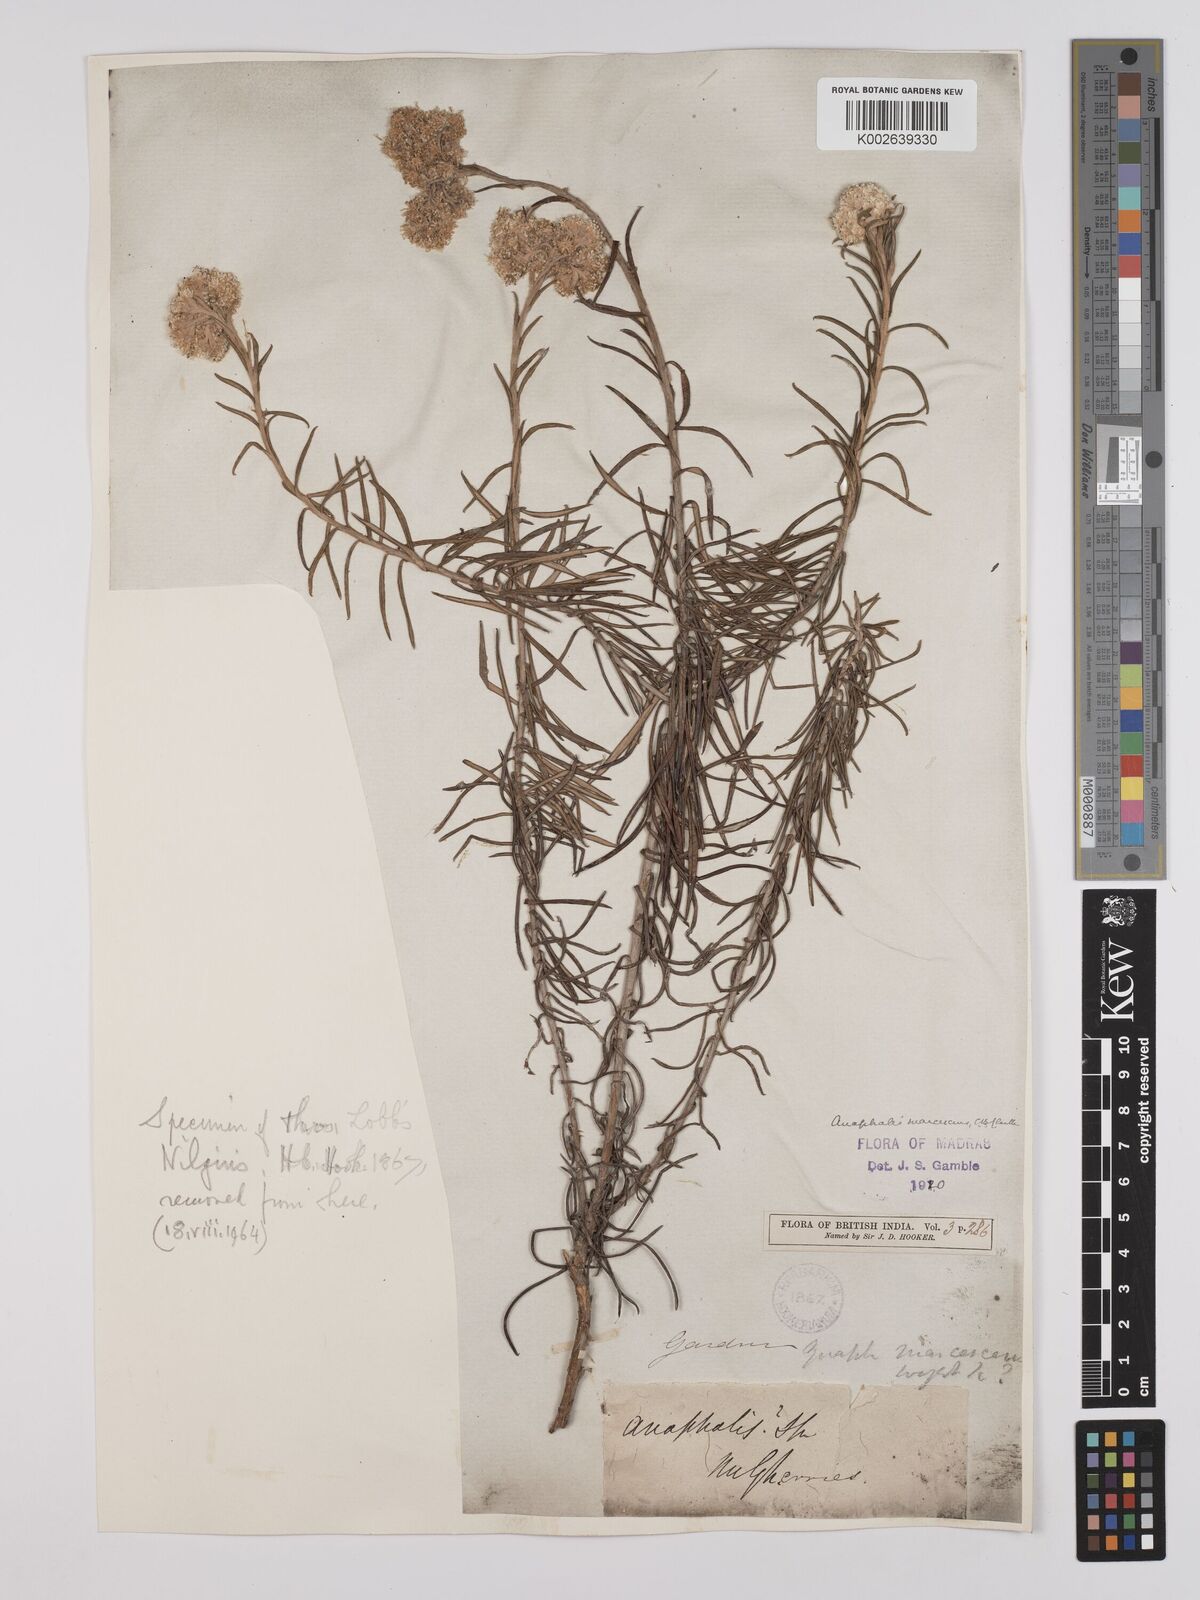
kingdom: Plantae
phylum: Tracheophyta
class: Magnoliopsida
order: Asterales
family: Asteraceae
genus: Anaphalis
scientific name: Anaphalis marcescens
